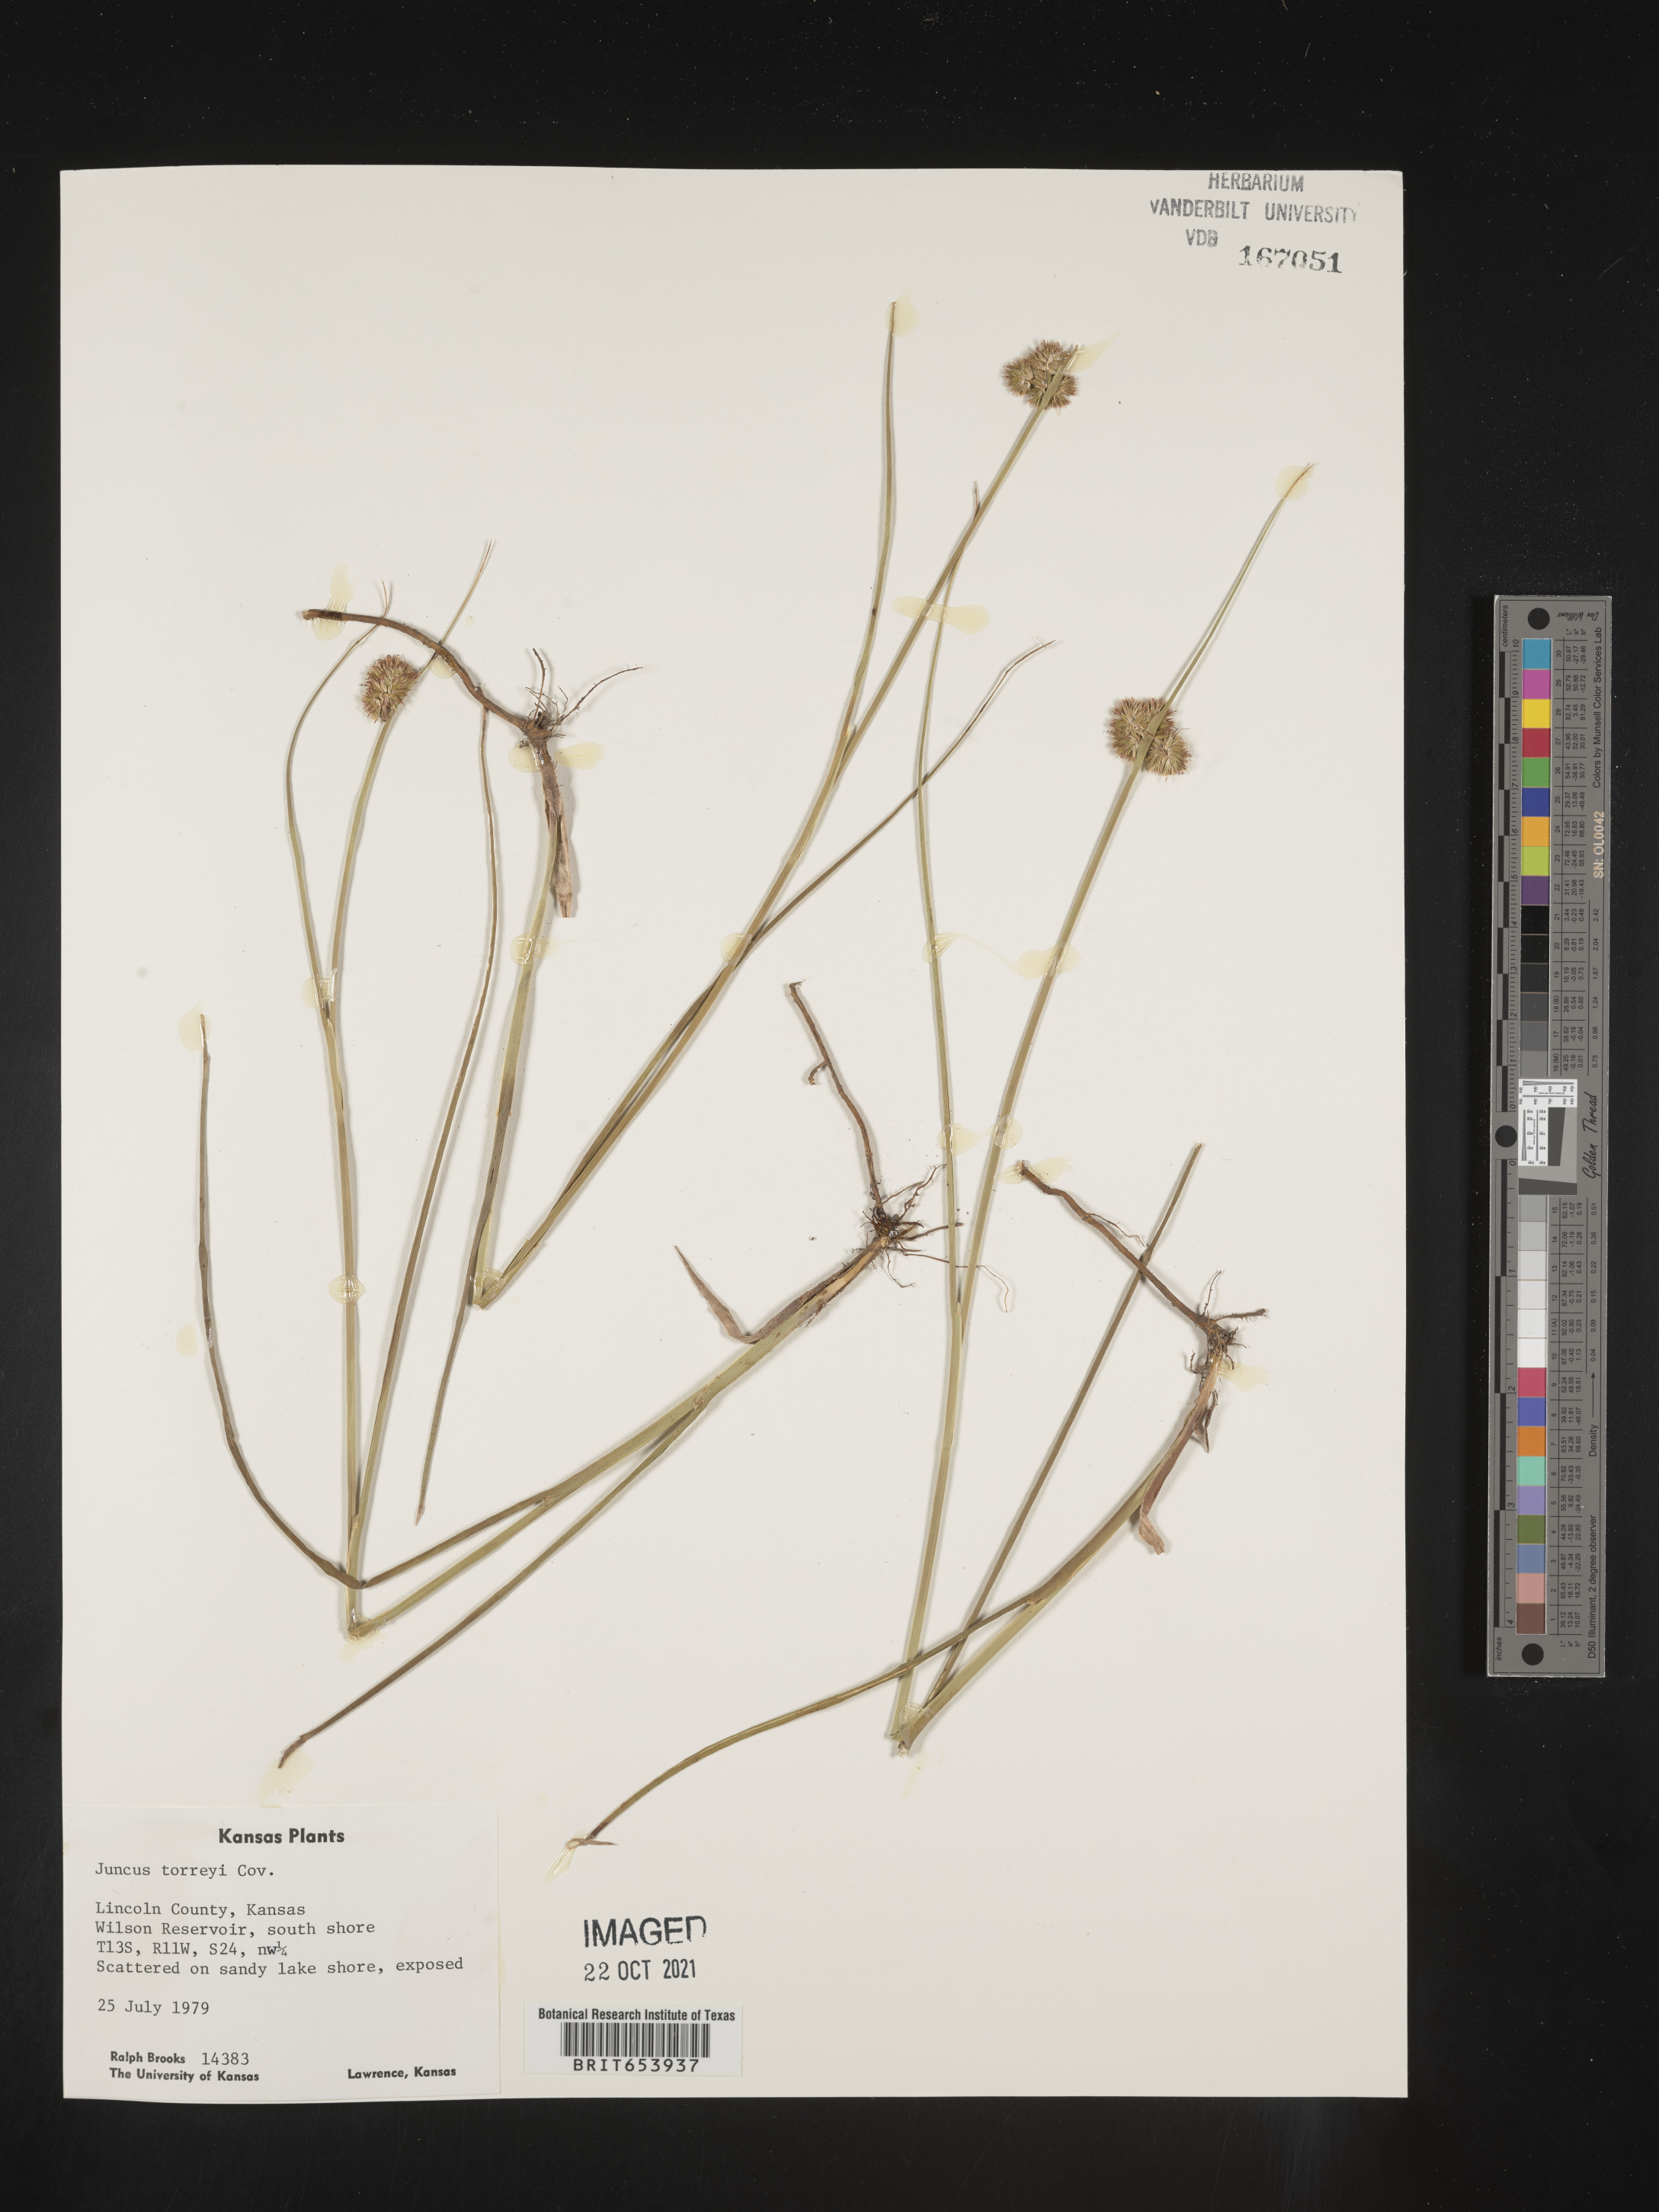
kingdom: Plantae
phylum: Tracheophyta
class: Liliopsida
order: Poales
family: Juncaceae
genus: Juncus
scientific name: Juncus torreyi
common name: Torrey's rush
